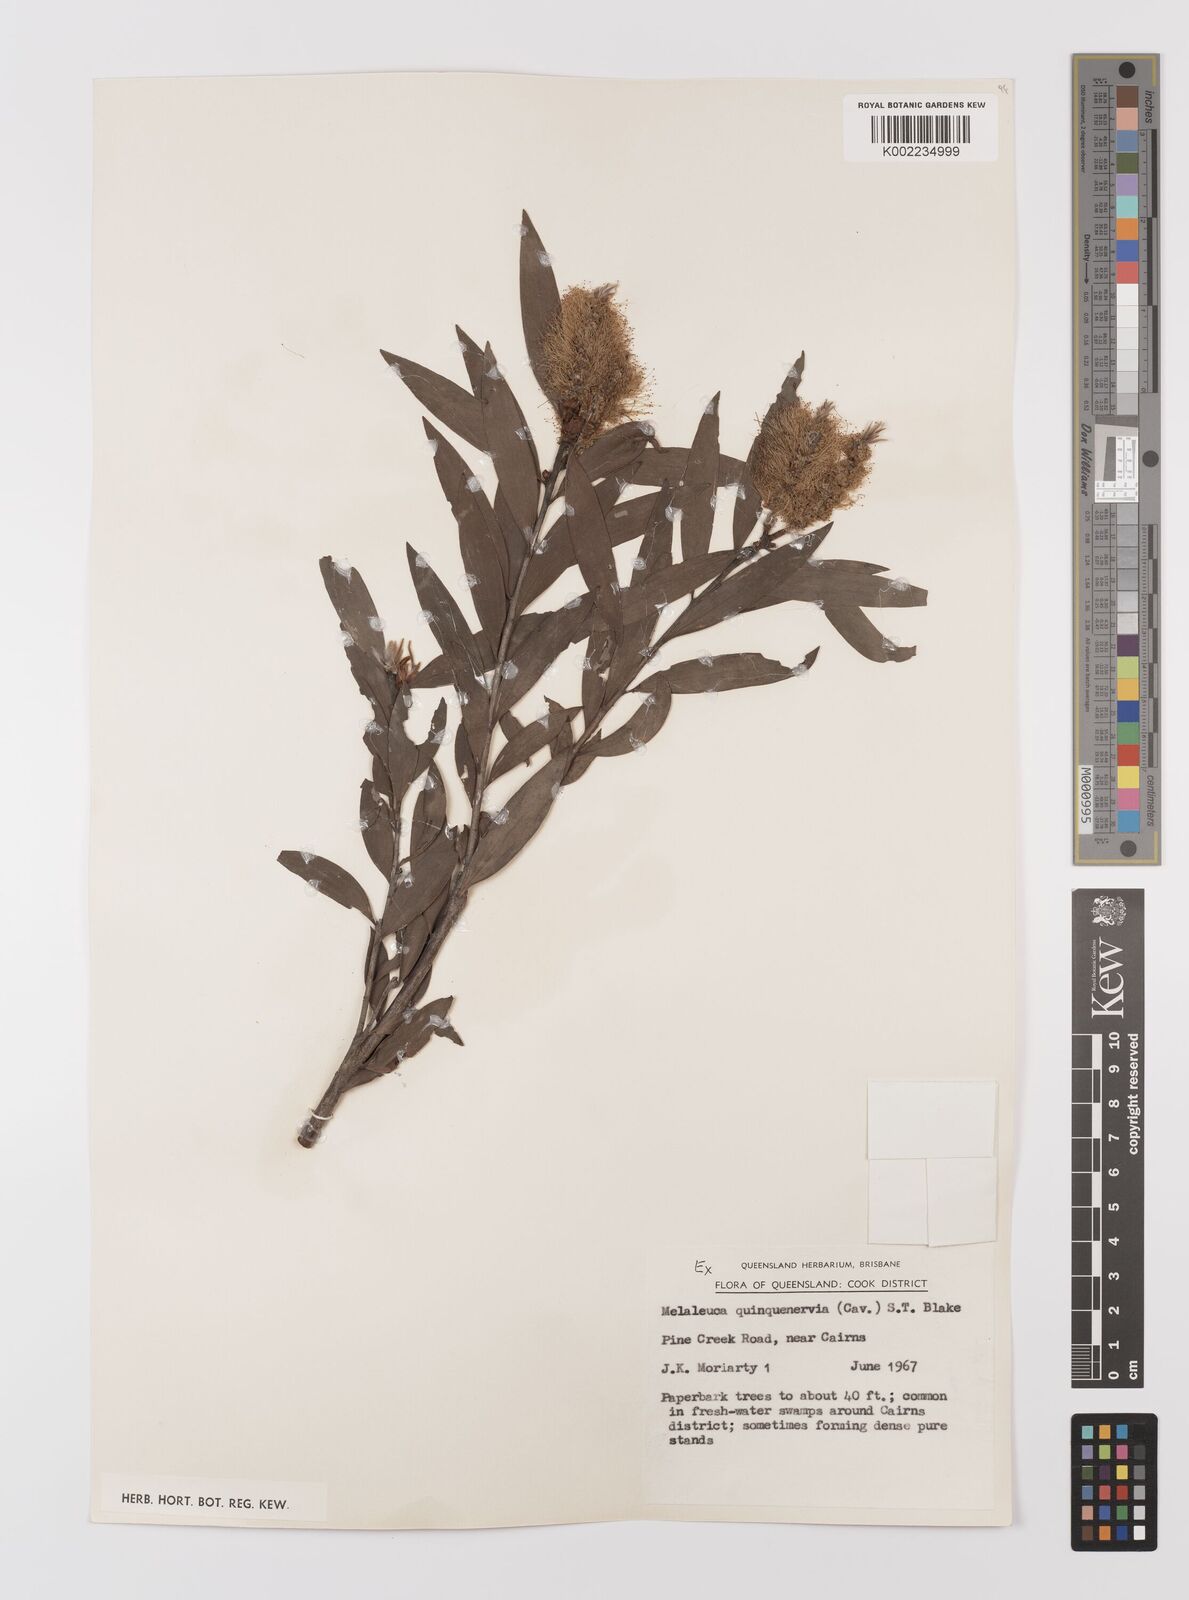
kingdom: Plantae
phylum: Tracheophyta
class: Magnoliopsida
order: Myrtales
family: Myrtaceae
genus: Melaleuca
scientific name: Melaleuca quinquenervia
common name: Punktree
